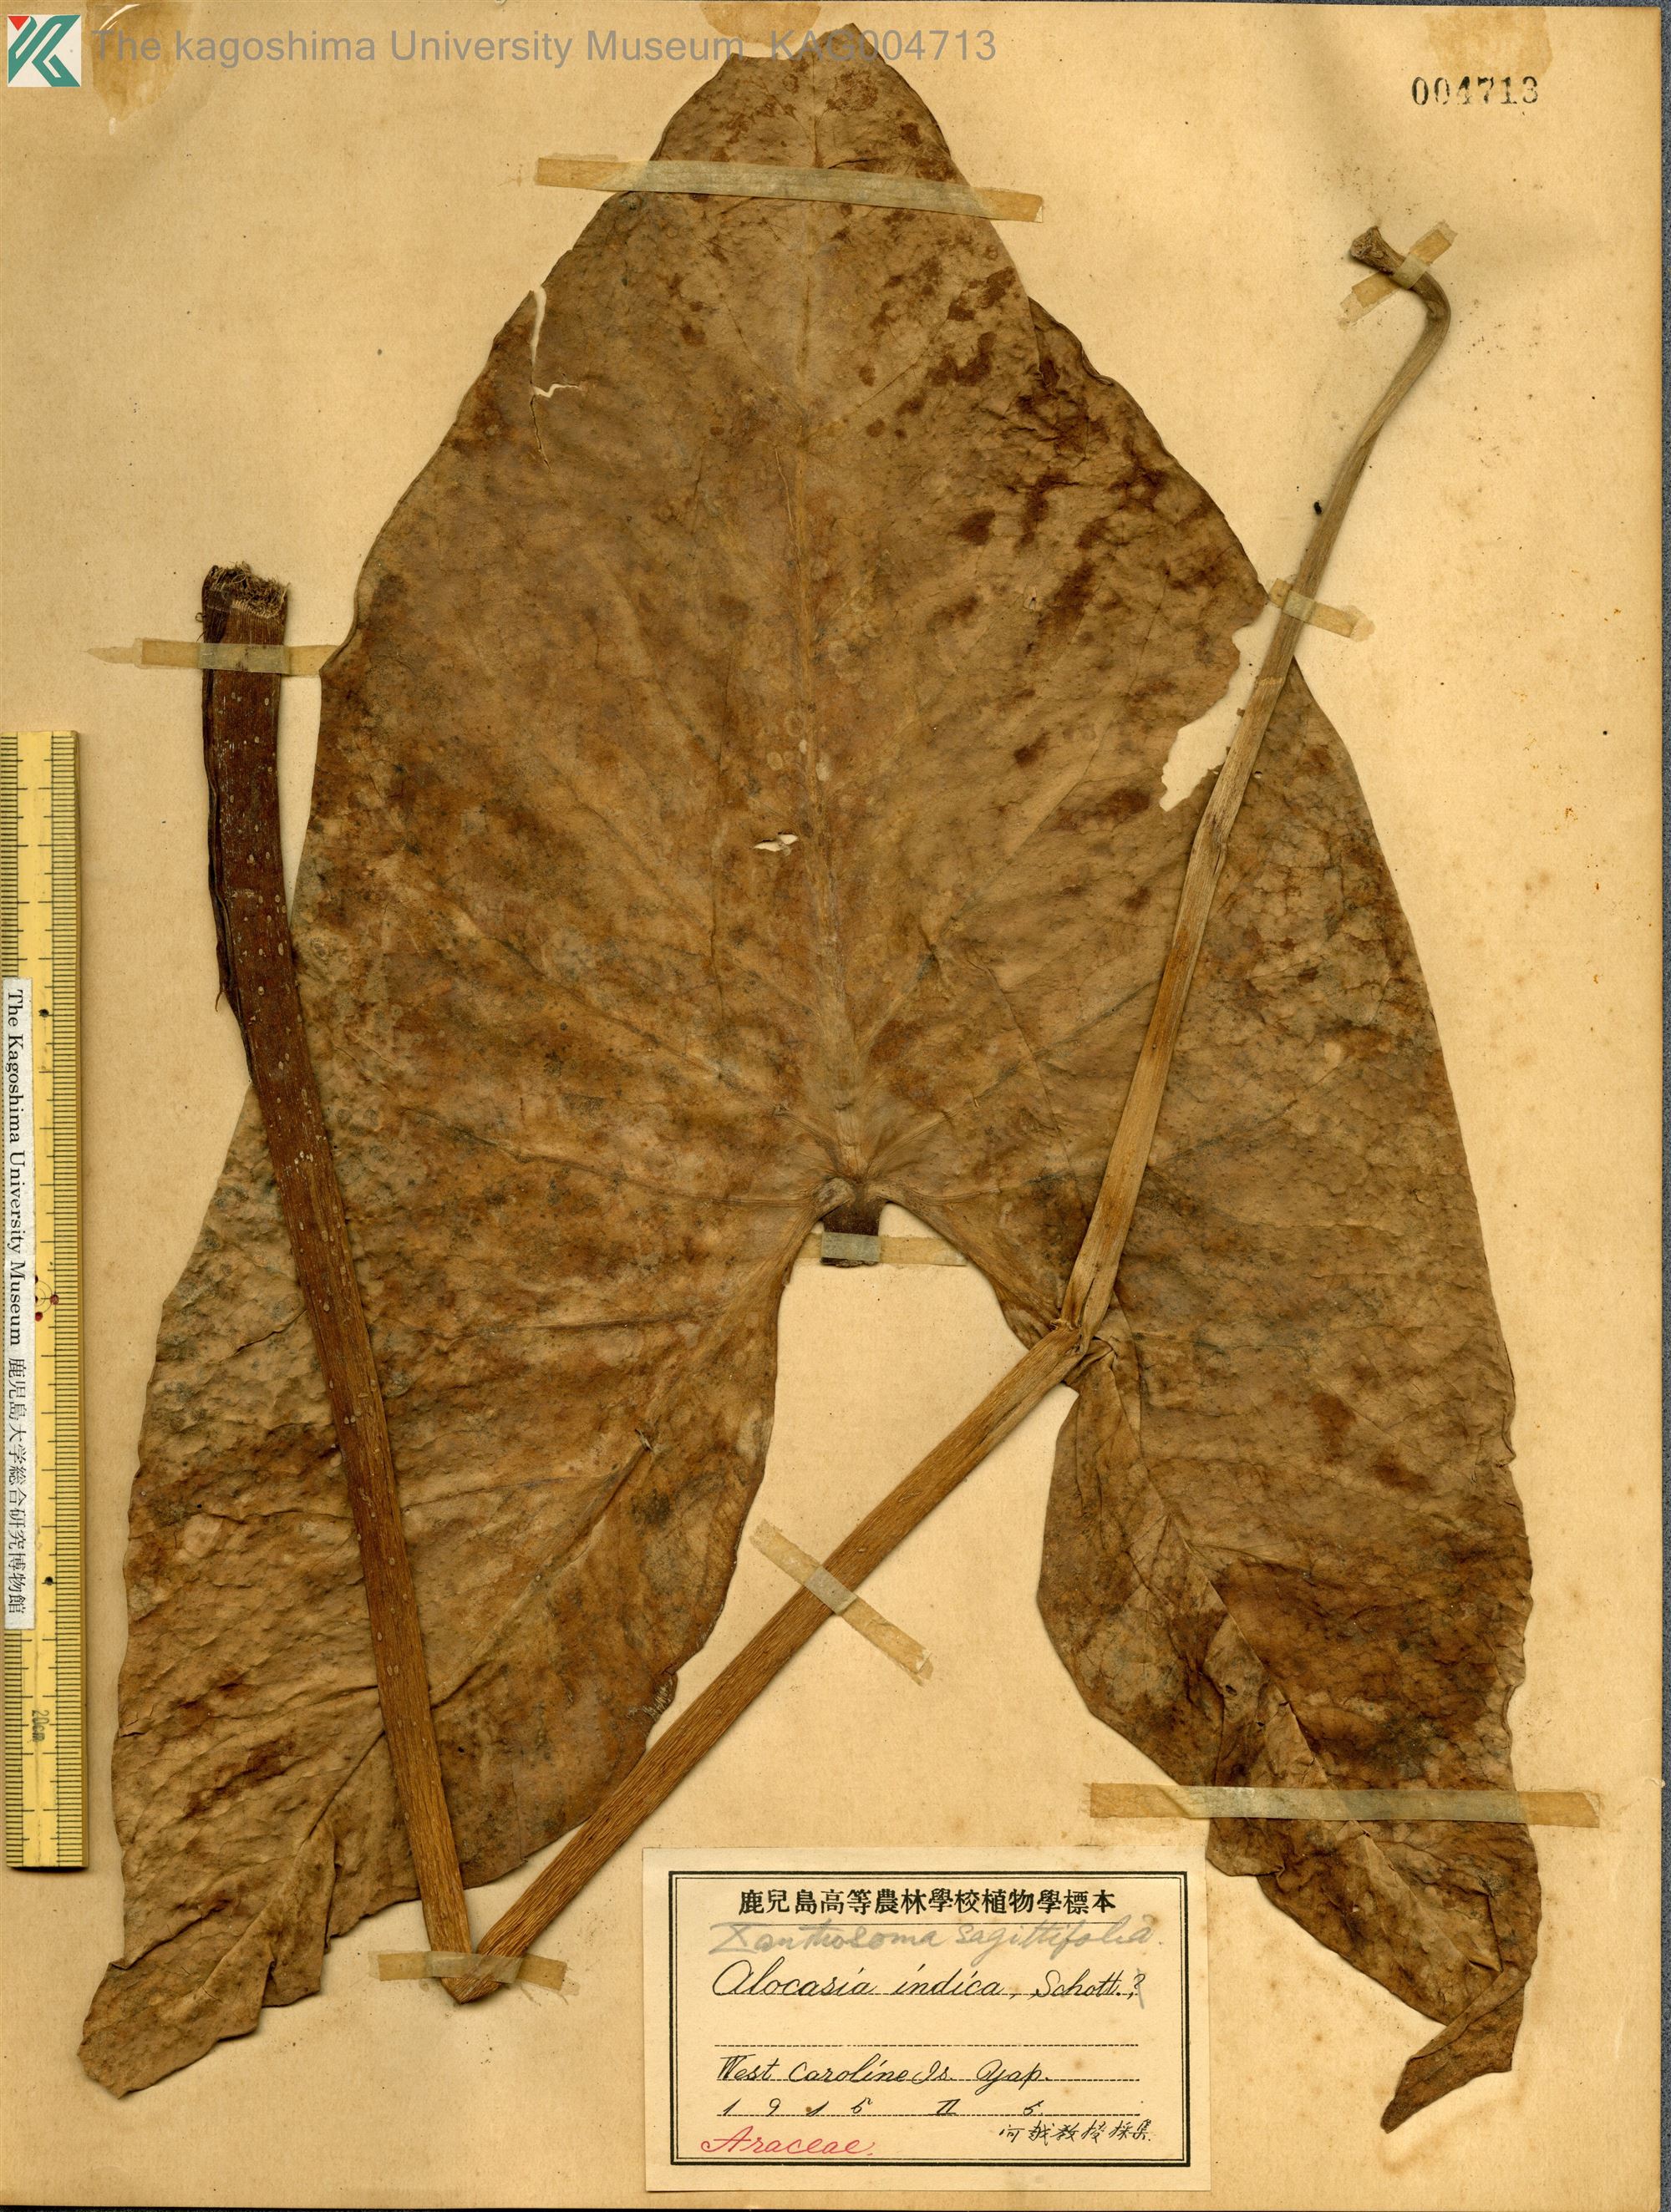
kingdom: Plantae
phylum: Tracheophyta
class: Liliopsida
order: Alismatales
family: Araceae
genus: Xanthosoma
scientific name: Xanthosoma sagittifolium
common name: Arrowleaf elephant's ear
